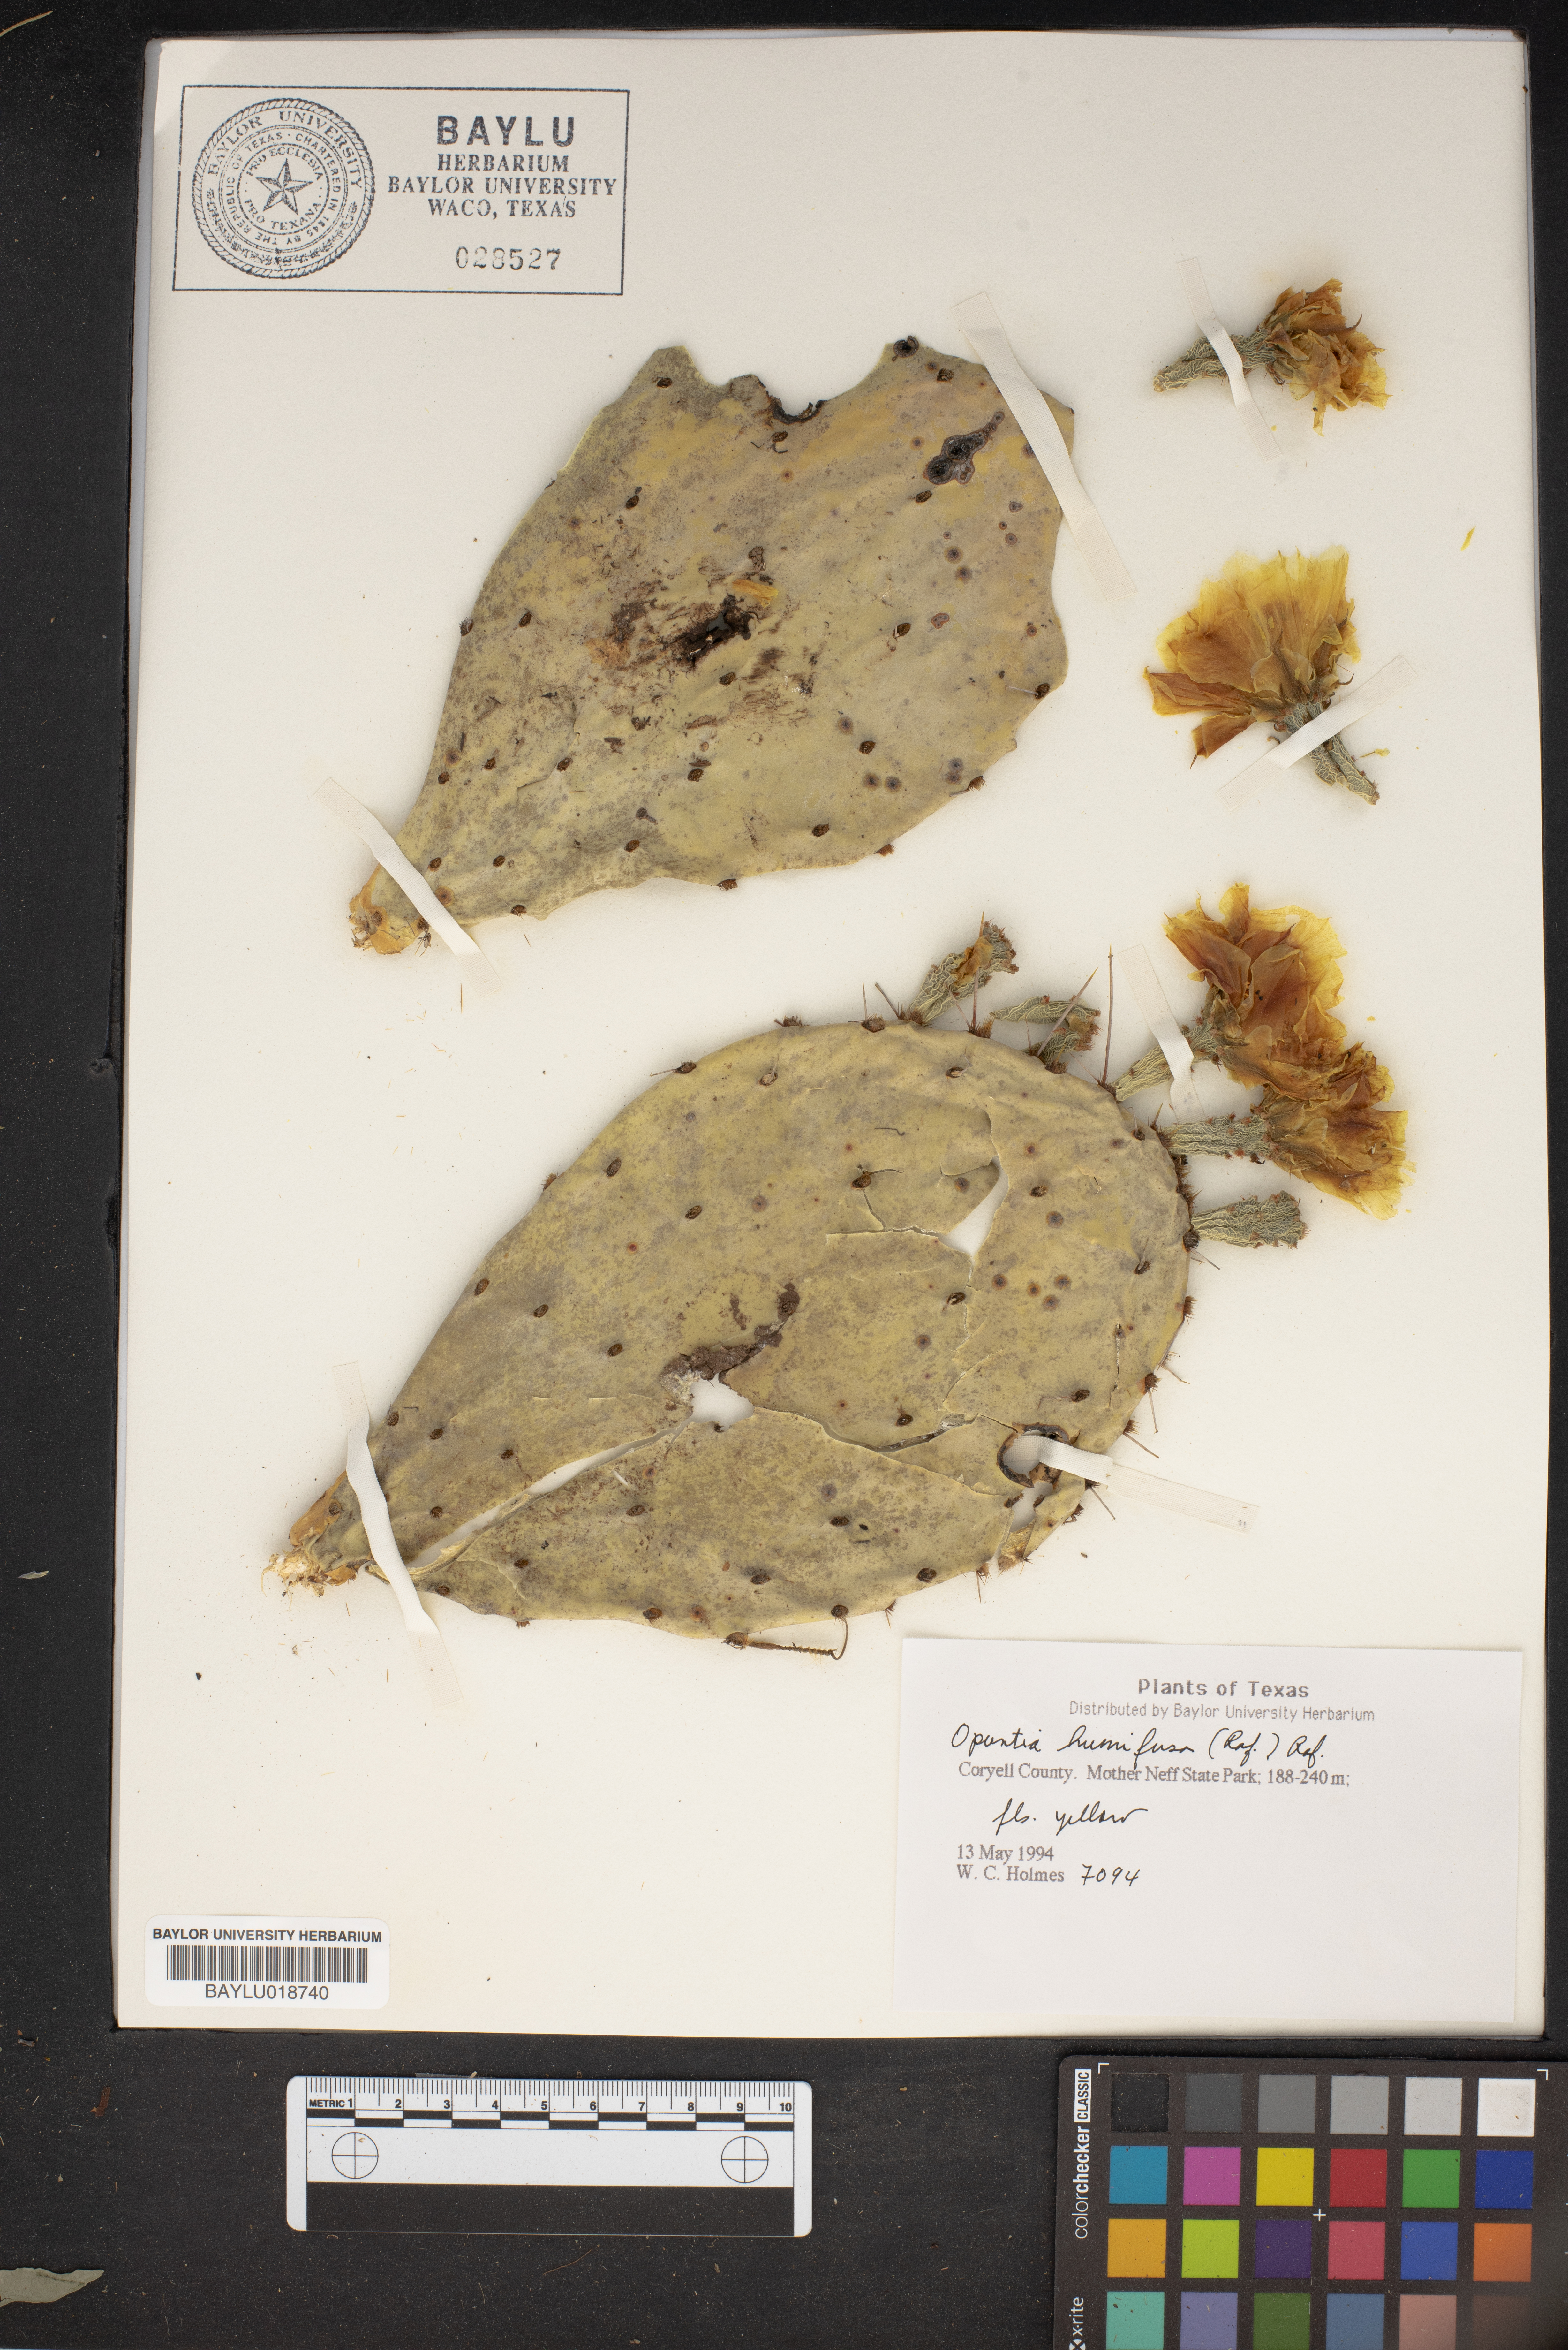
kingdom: Plantae
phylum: Tracheophyta
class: Magnoliopsida
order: Caryophyllales
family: Cactaceae
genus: Opuntia
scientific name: Opuntia humifusa
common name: Eastern prickly-pear
